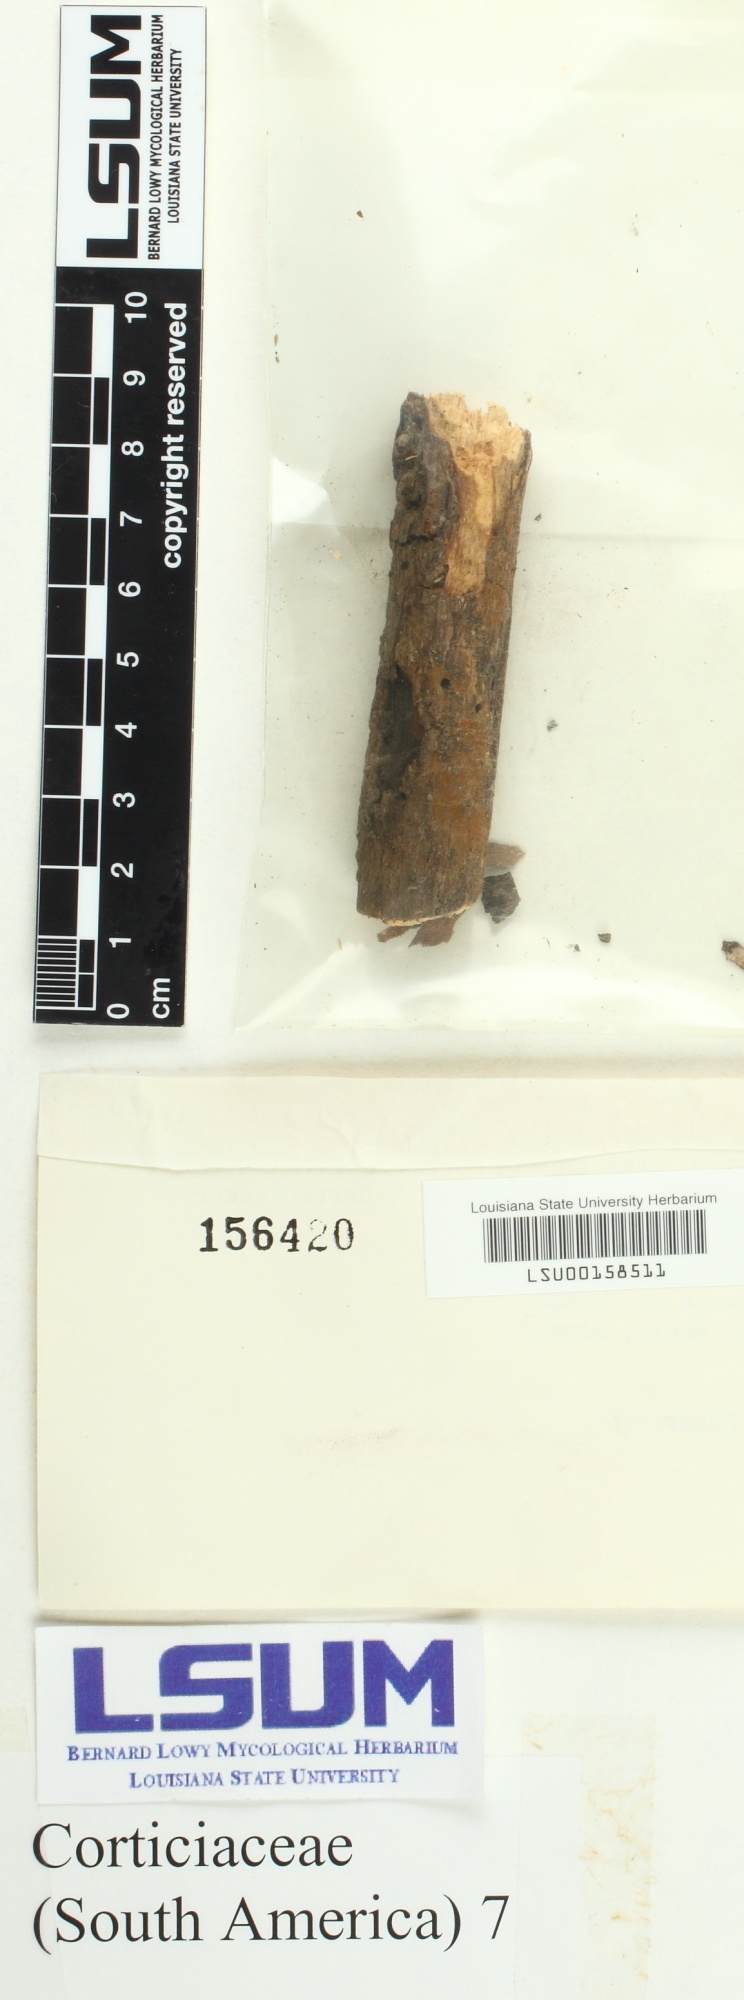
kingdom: Fungi
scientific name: Fungi
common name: Fungi
